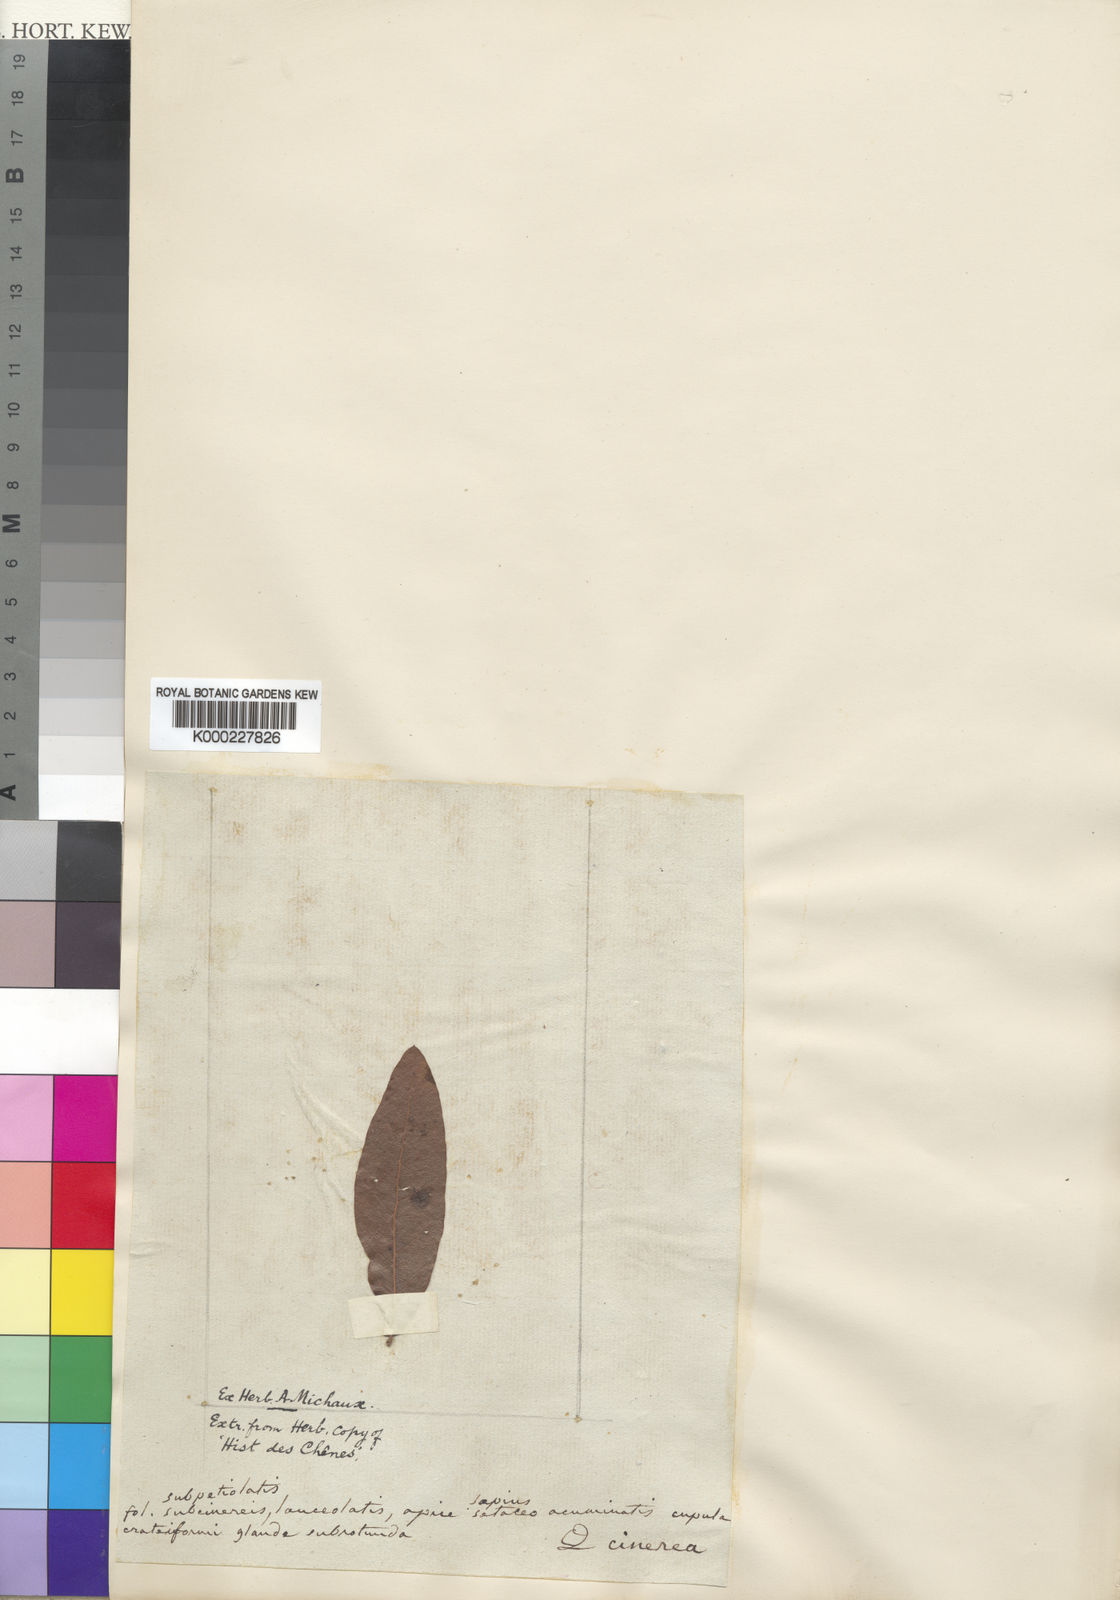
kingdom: Plantae
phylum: Tracheophyta
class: Magnoliopsida
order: Fagales
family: Fagaceae
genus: Quercus
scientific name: Quercus incana
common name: Bluejack oak
